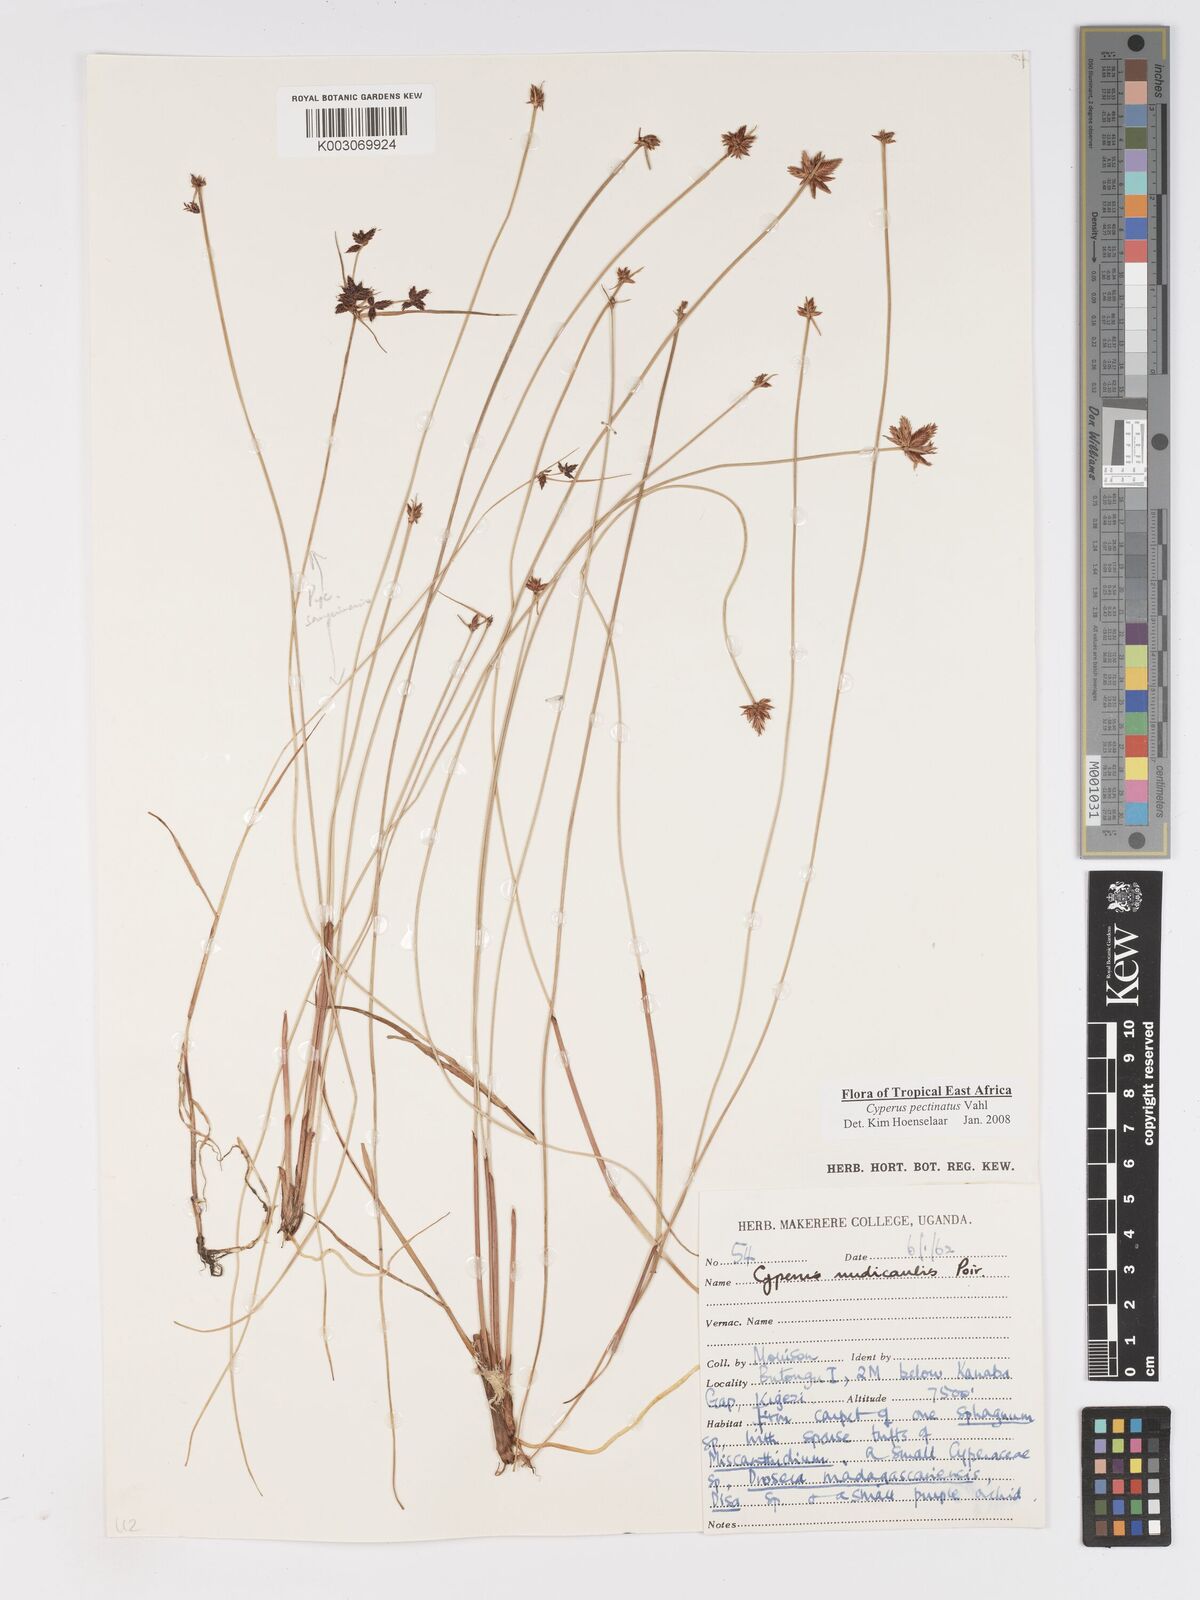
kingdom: Plantae
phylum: Tracheophyta
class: Liliopsida
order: Poales
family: Cyperaceae
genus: Cyperus
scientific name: Cyperus pectinatus
